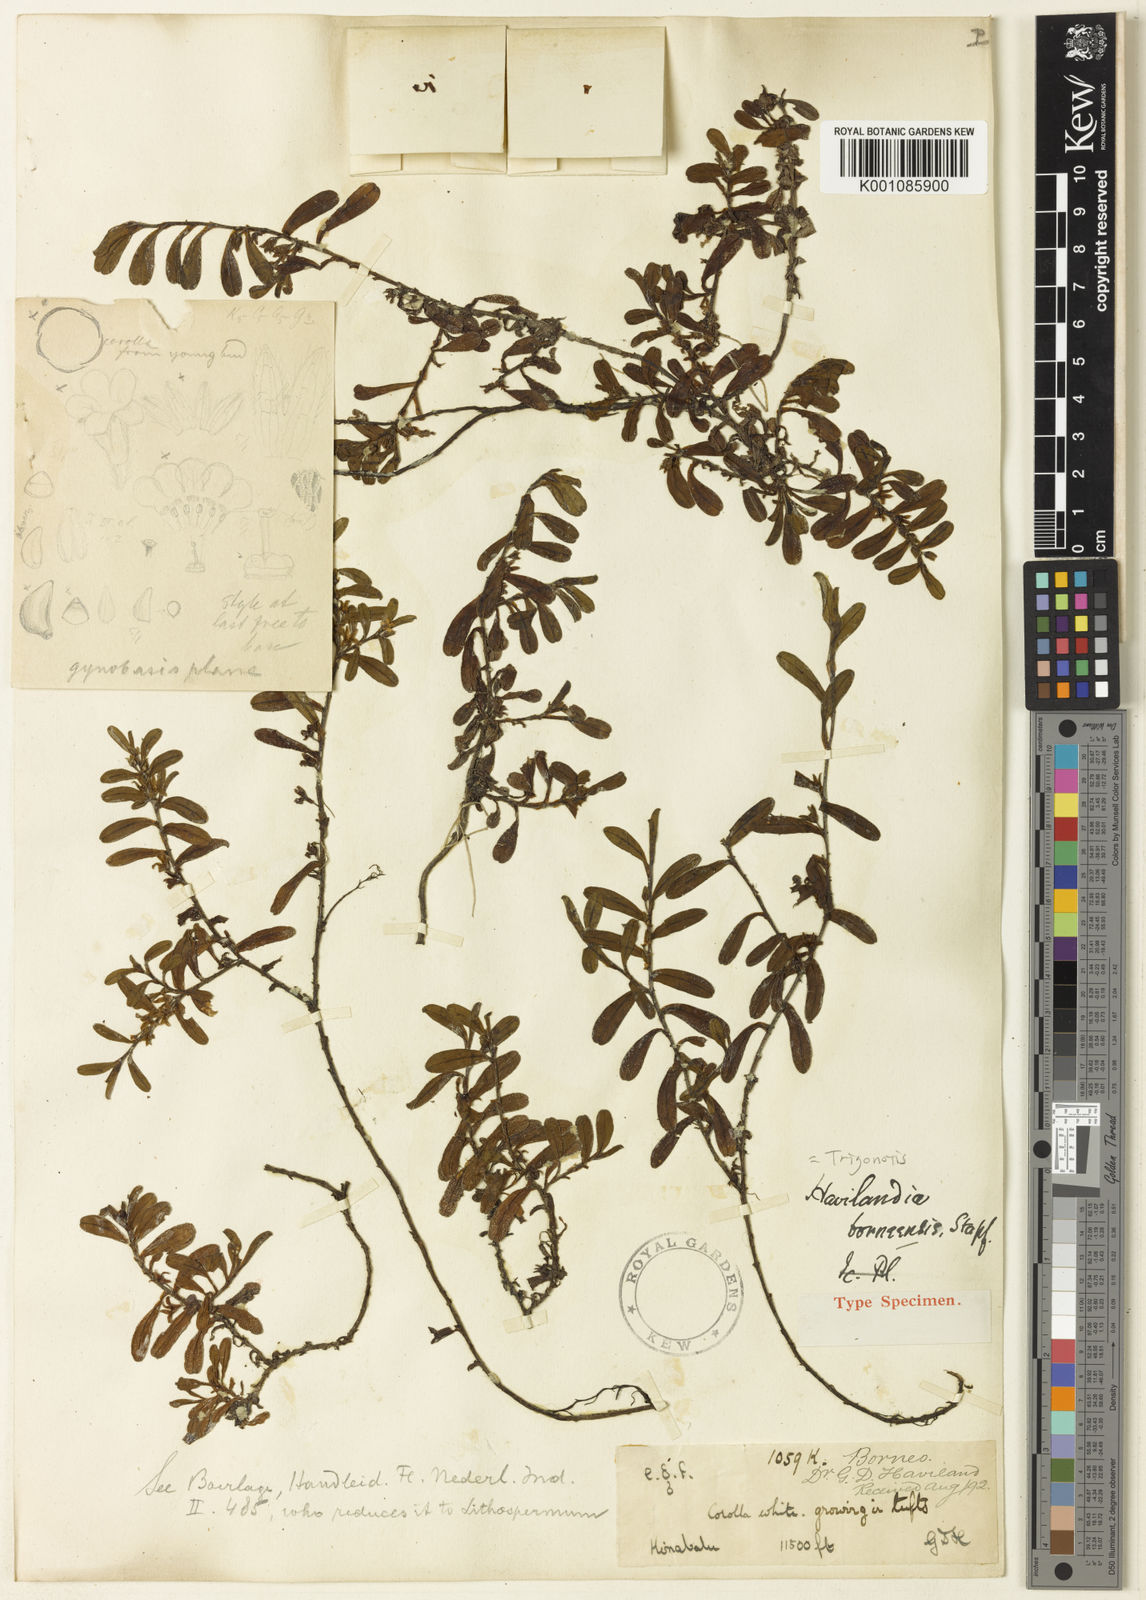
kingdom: Plantae
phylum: Tracheophyta
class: Magnoliopsida
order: Boraginales
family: Boraginaceae
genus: Trigonotis
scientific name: Trigonotis borneensis
